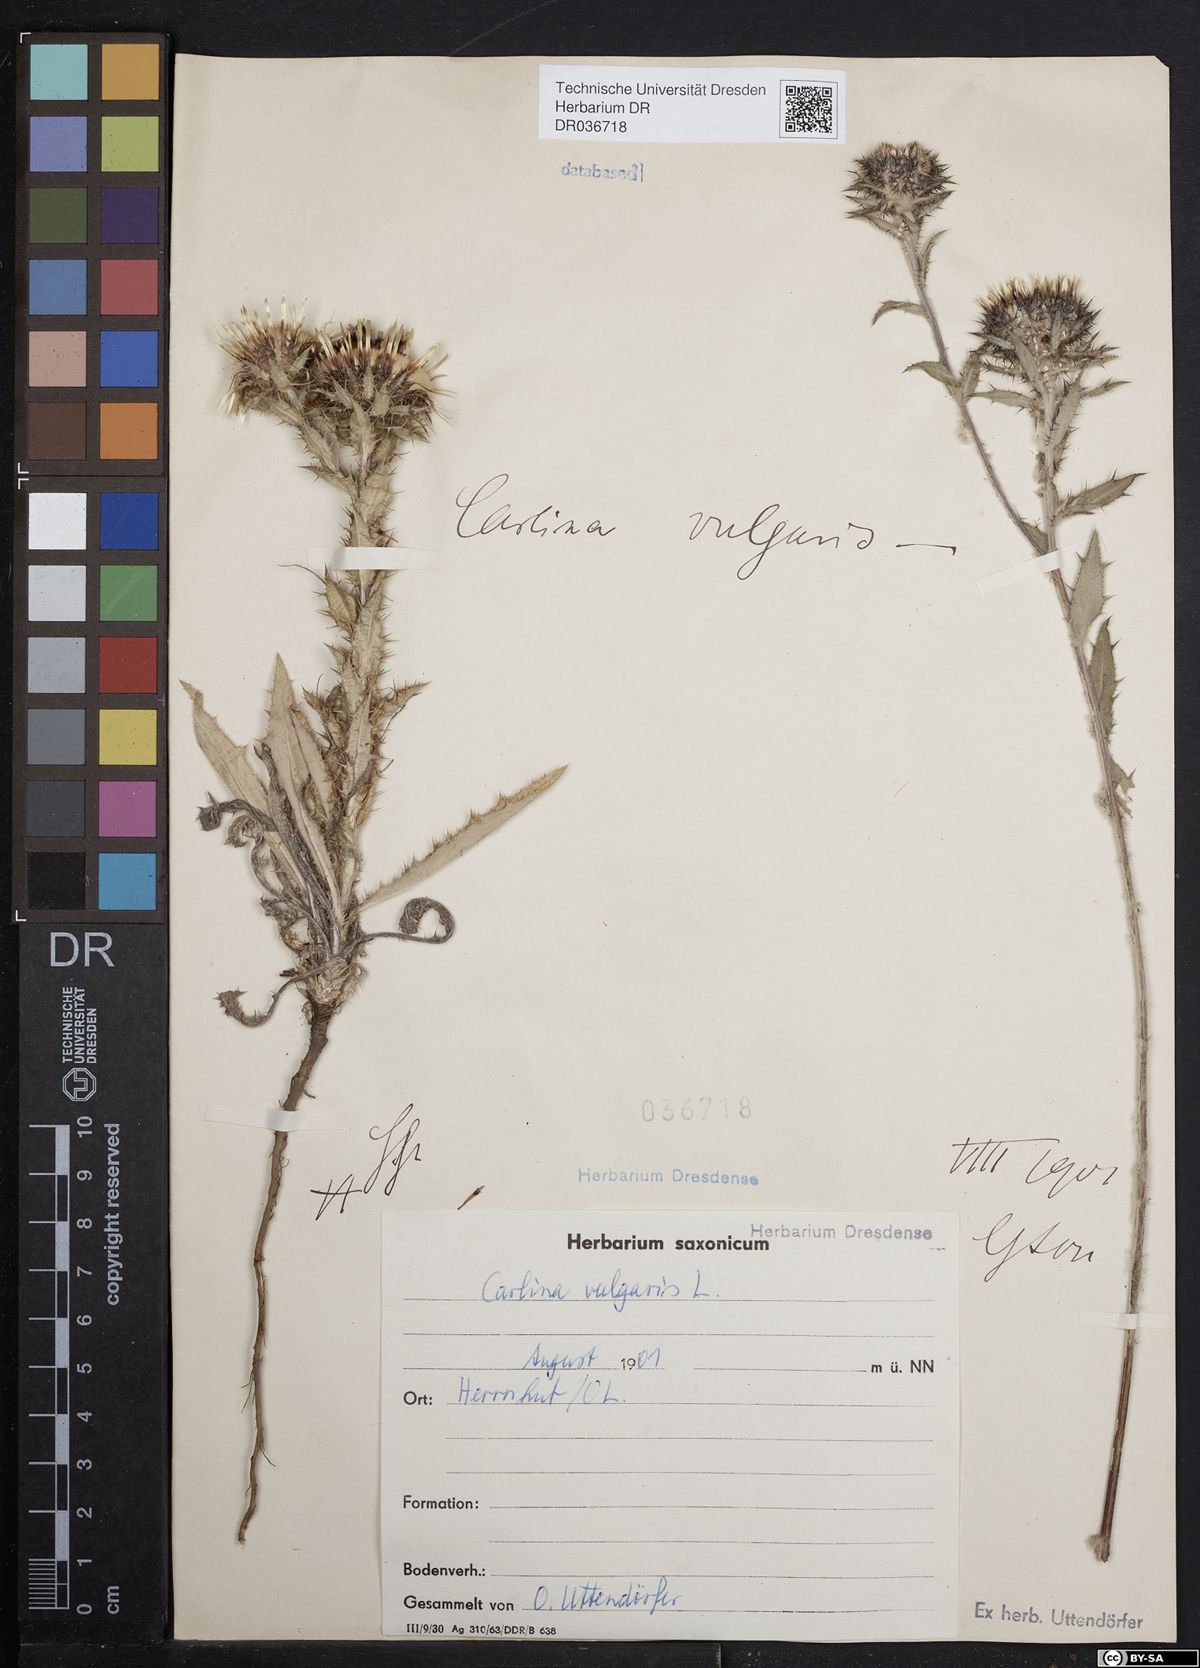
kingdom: Plantae
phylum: Tracheophyta
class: Magnoliopsida
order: Asterales
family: Asteraceae
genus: Carlina
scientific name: Carlina vulgaris
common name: Carline thistle
